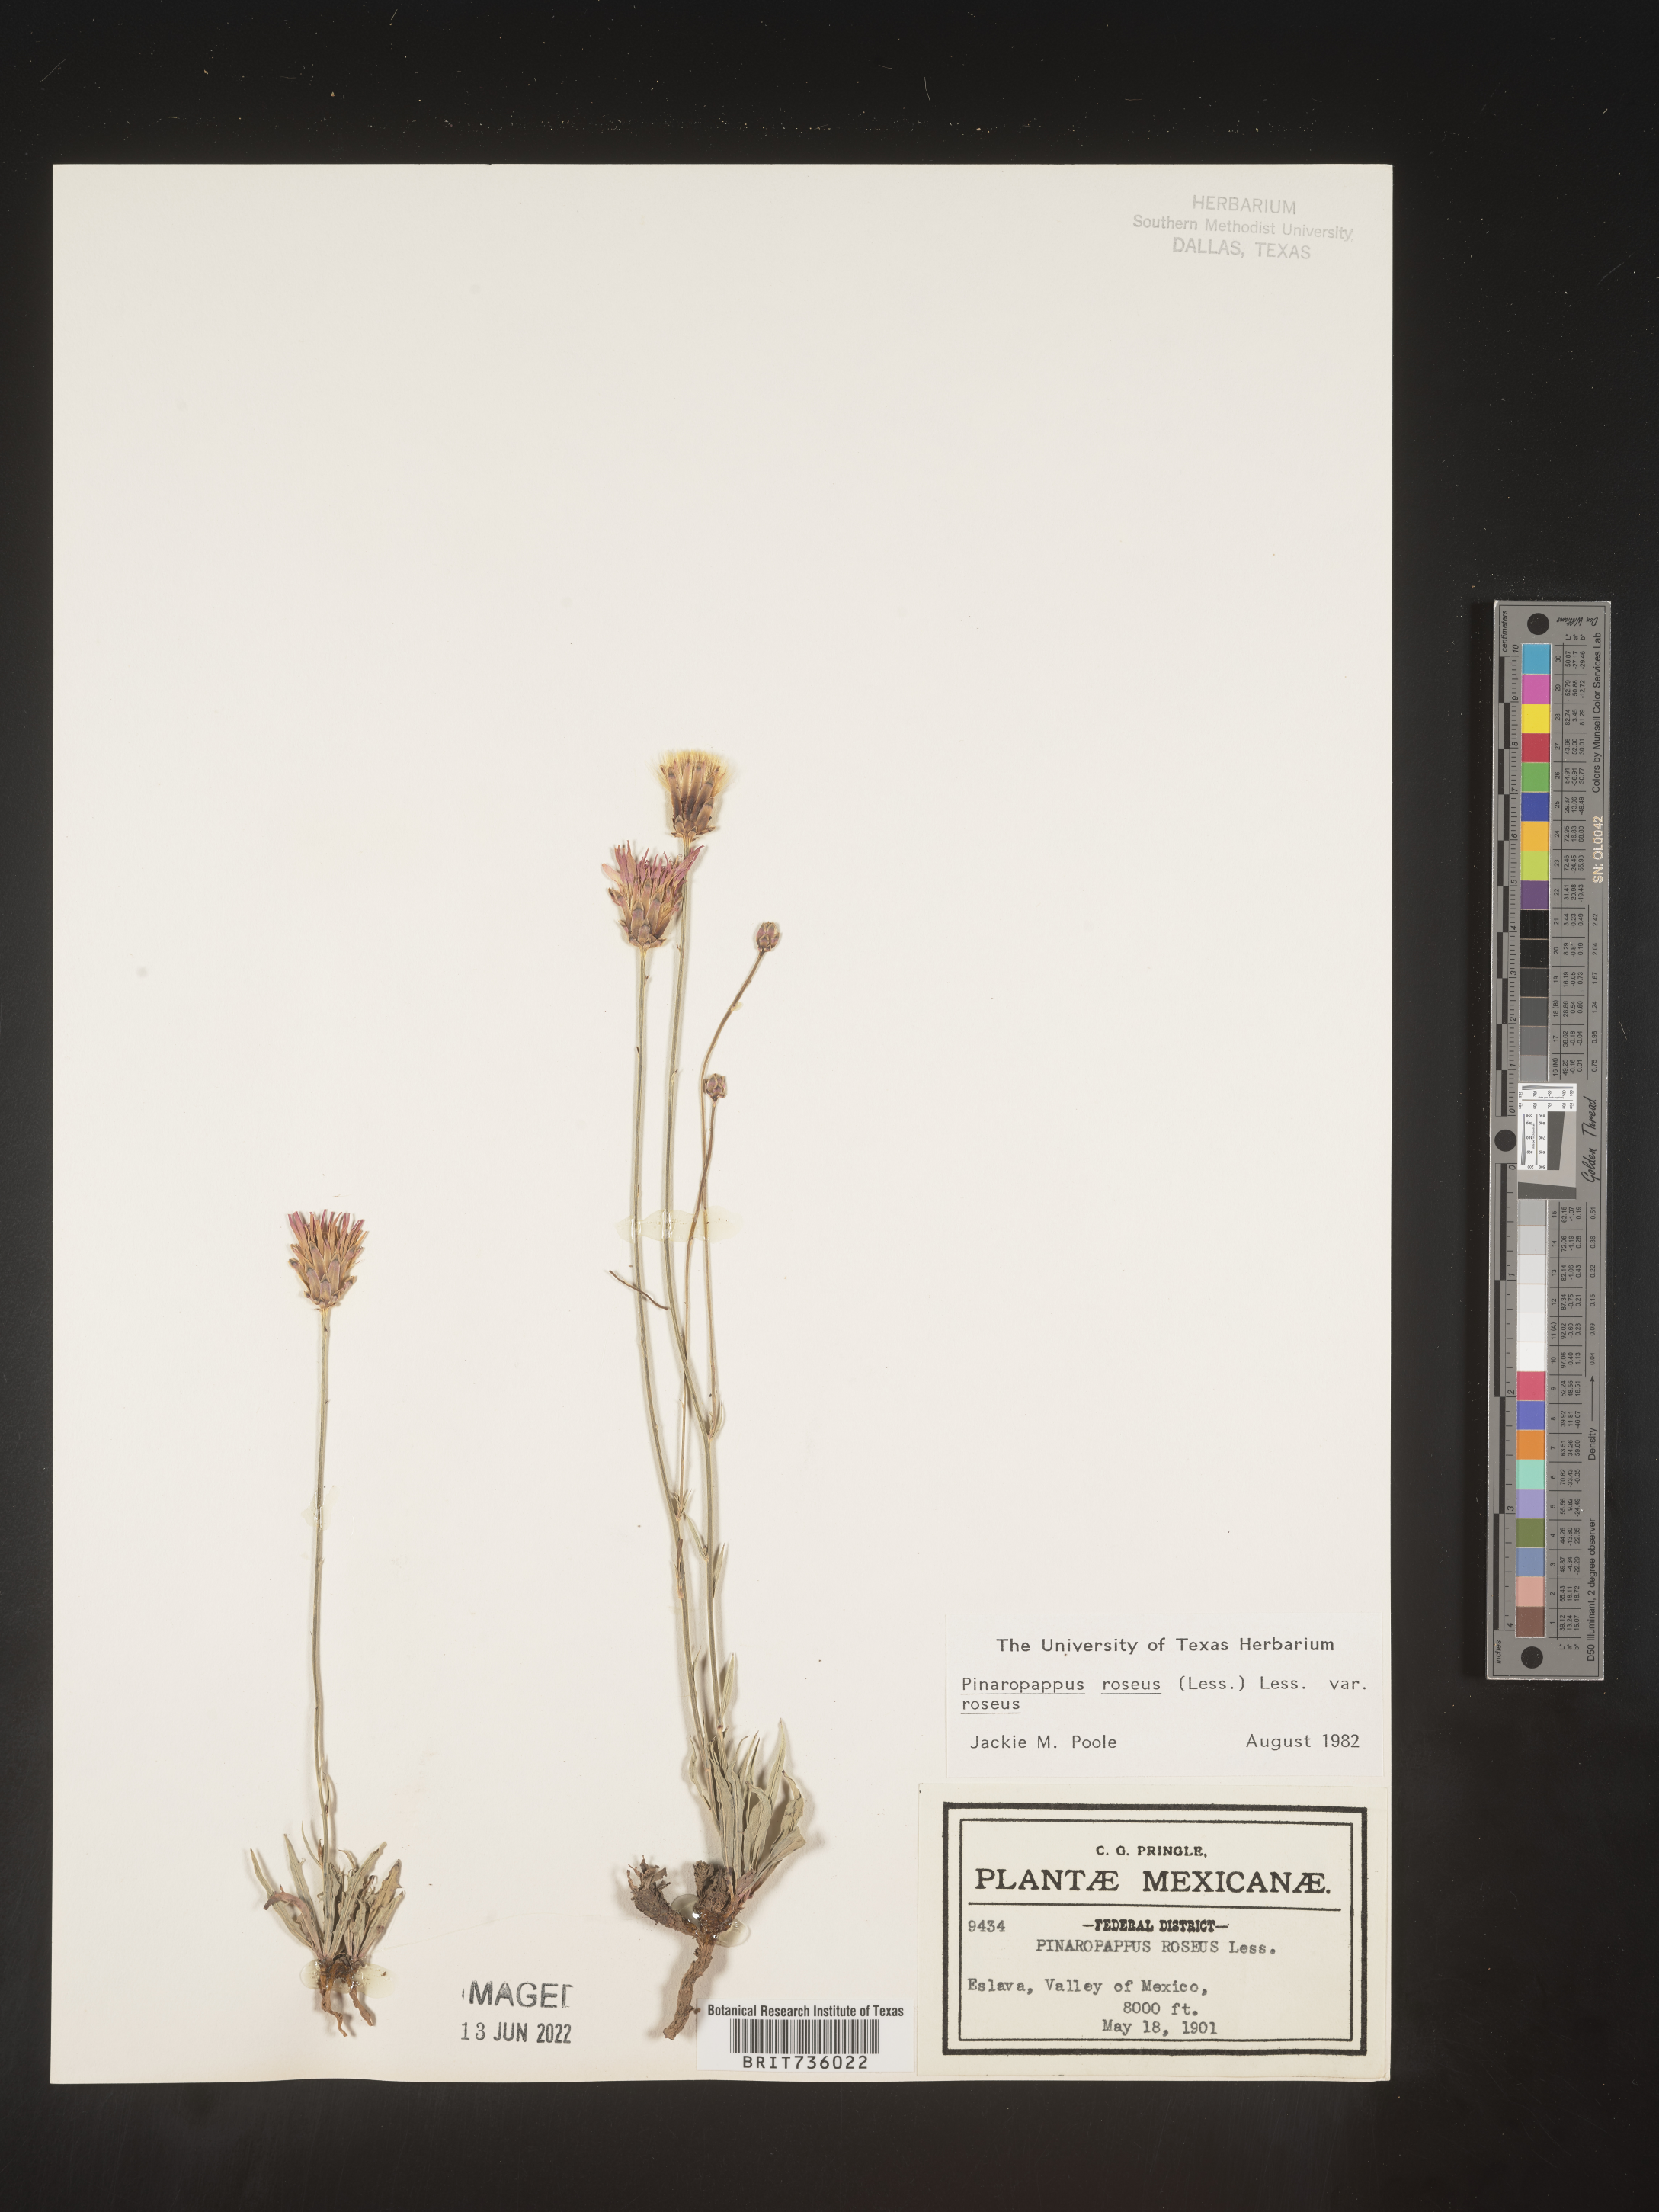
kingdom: Plantae
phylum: Tracheophyta
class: Magnoliopsida
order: Asterales
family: Asteraceae
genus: Pinaropappus
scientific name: Pinaropappus
